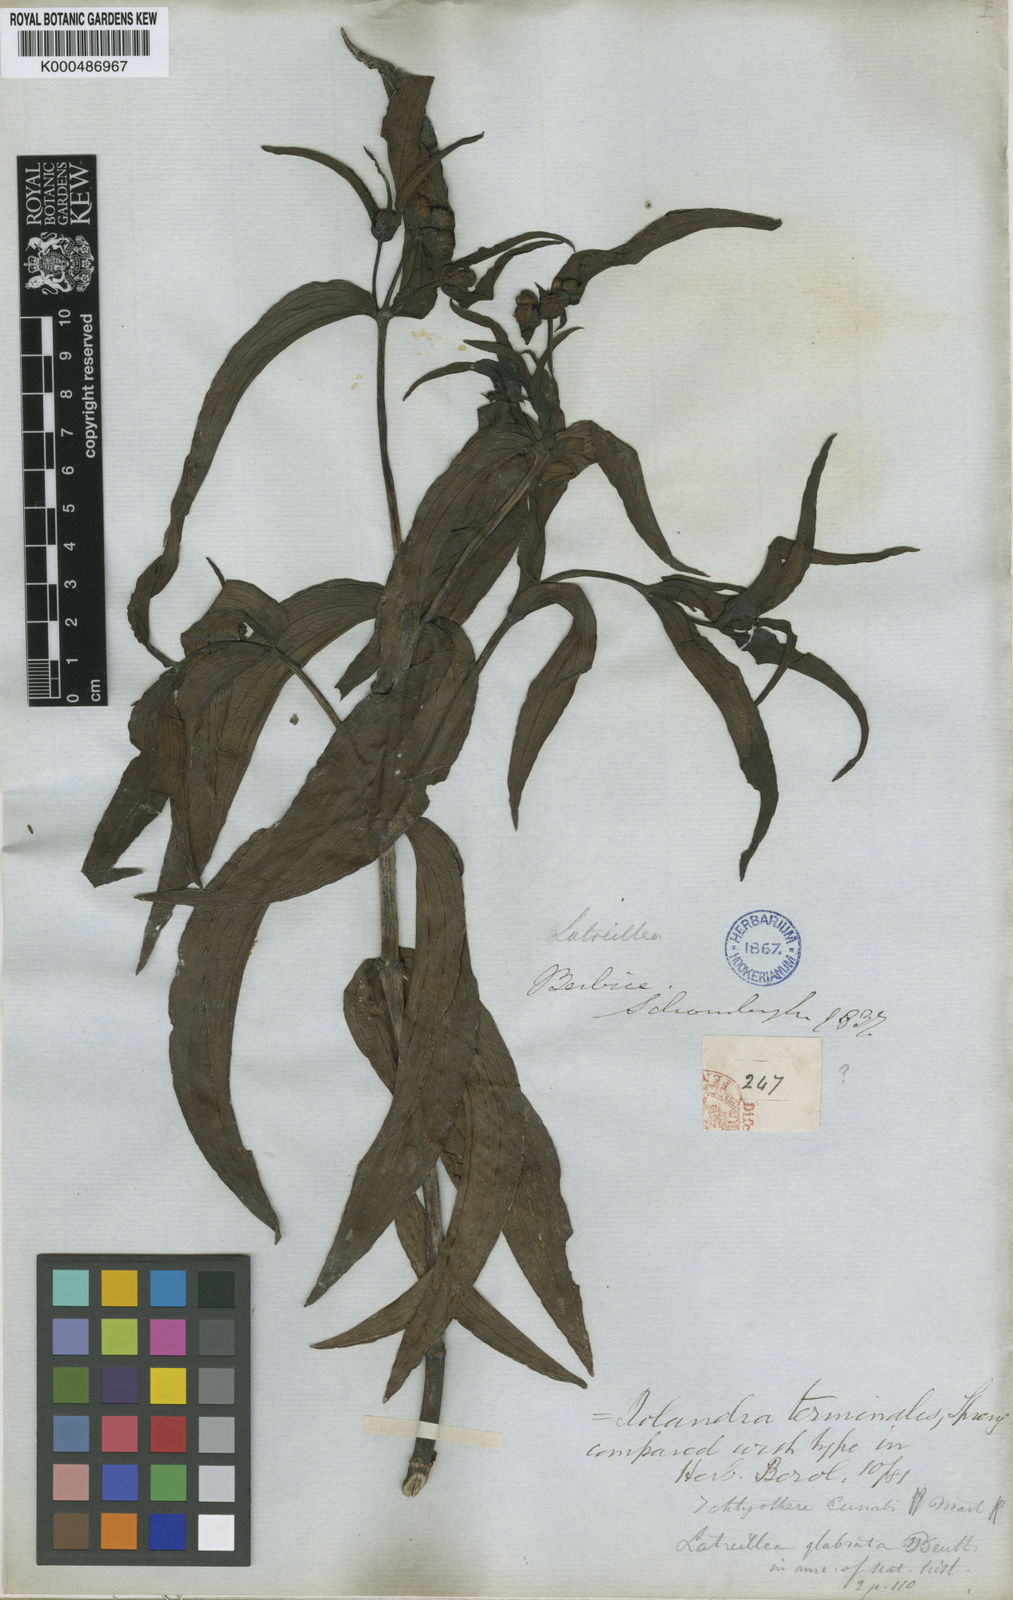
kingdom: Plantae
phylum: Tracheophyta
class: Magnoliopsida
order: Asterales
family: Asteraceae
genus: Ichthyothere
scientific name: Ichthyothere terminalis
